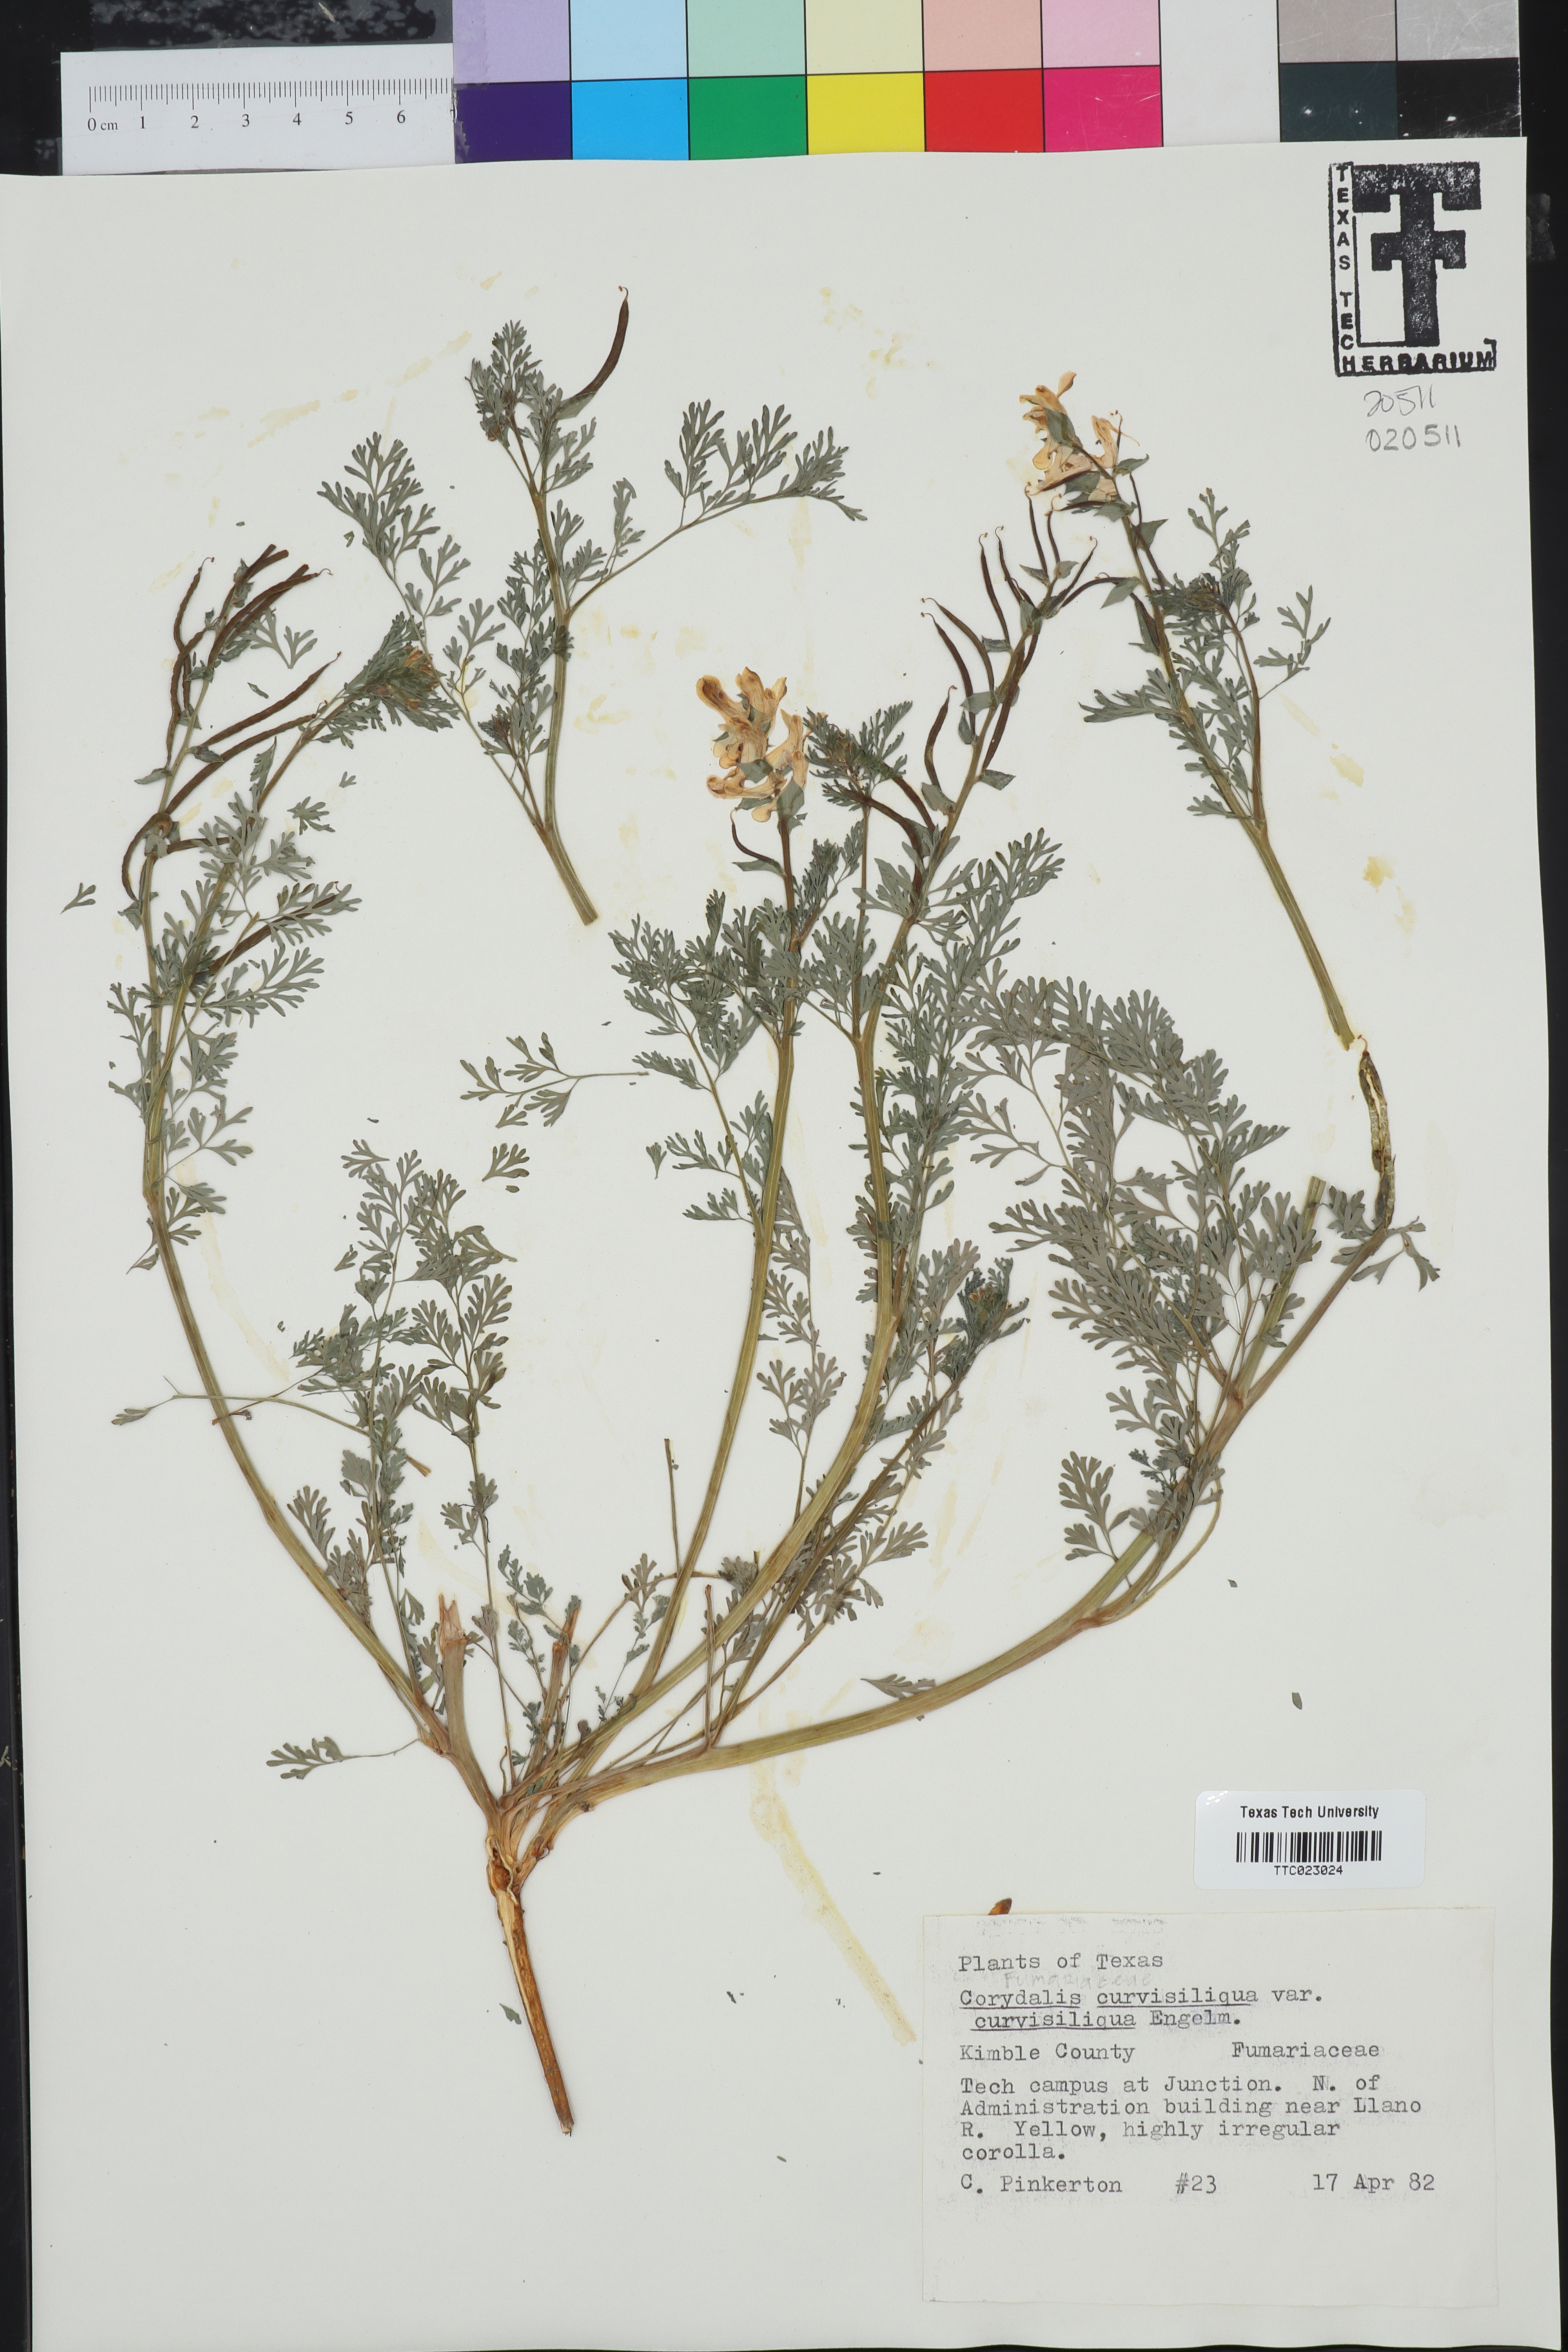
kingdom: Plantae
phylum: Tracheophyta
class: Magnoliopsida
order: Ranunculales
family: Papaveraceae
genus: Corydalis
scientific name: Corydalis curvisiliqua
